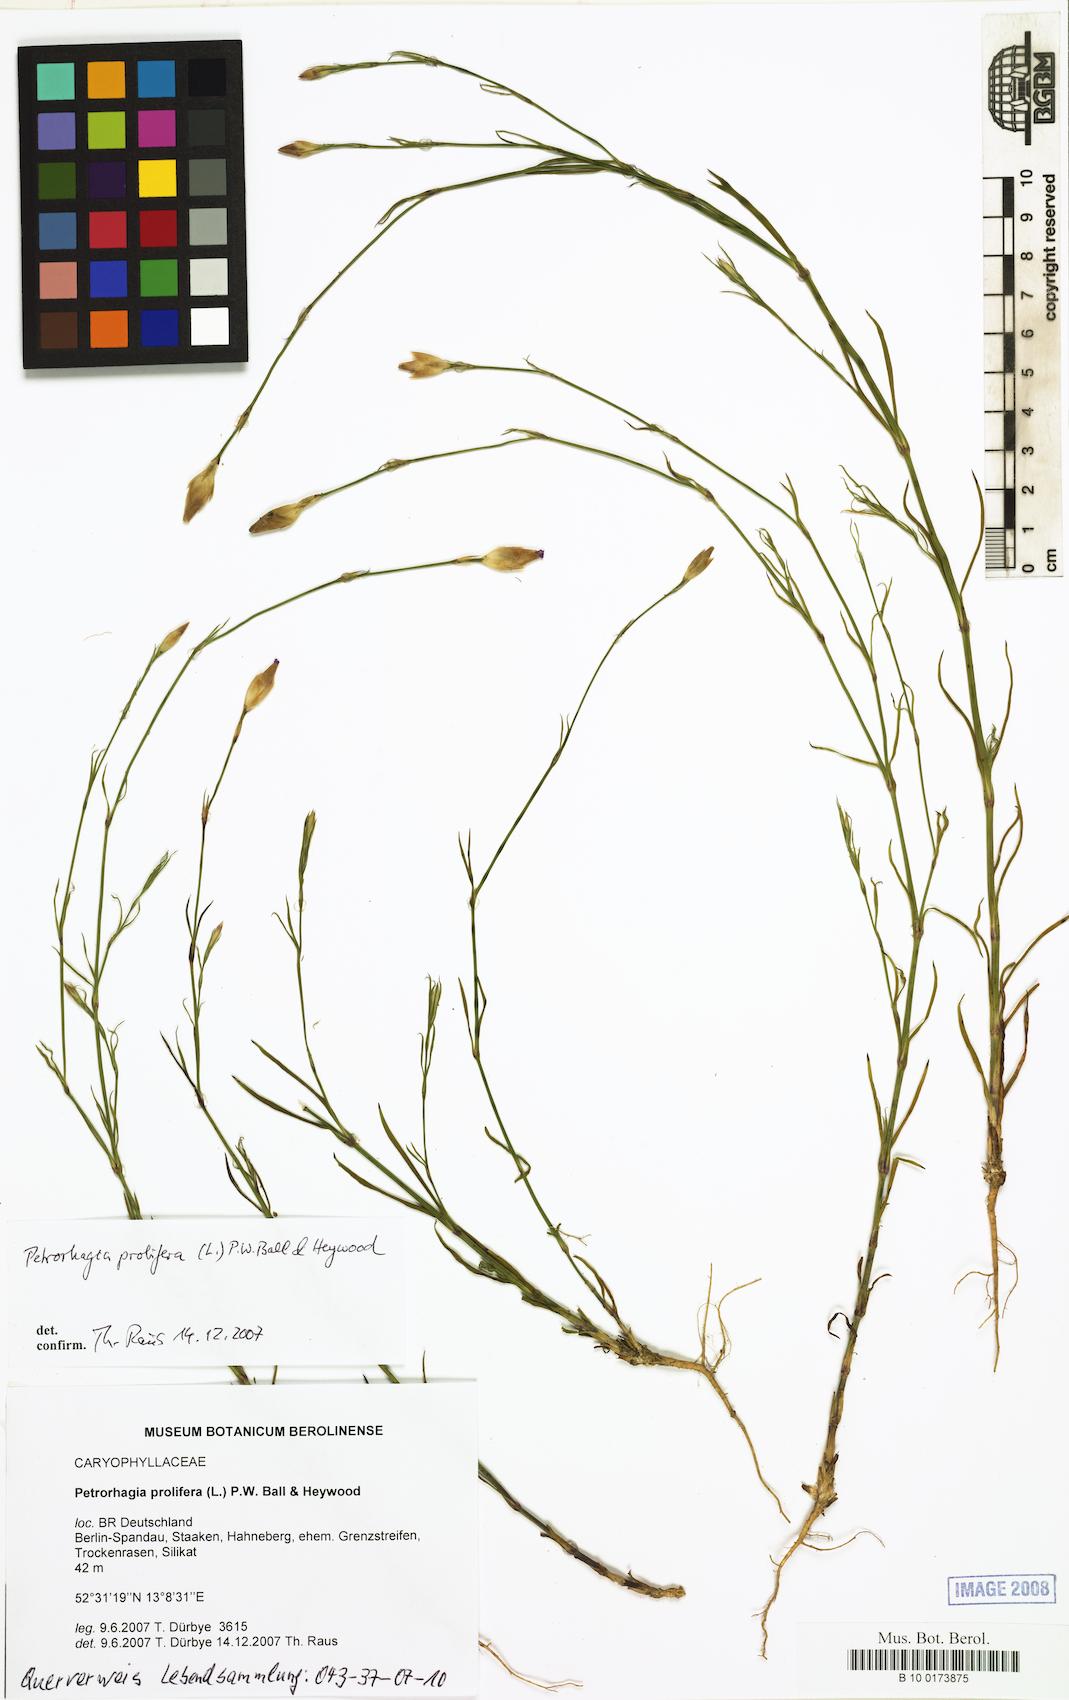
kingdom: Plantae
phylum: Tracheophyta
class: Magnoliopsida
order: Caryophyllales
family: Caryophyllaceae
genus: Petrorhagia
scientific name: Petrorhagia prolifera
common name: Proliferous pink
